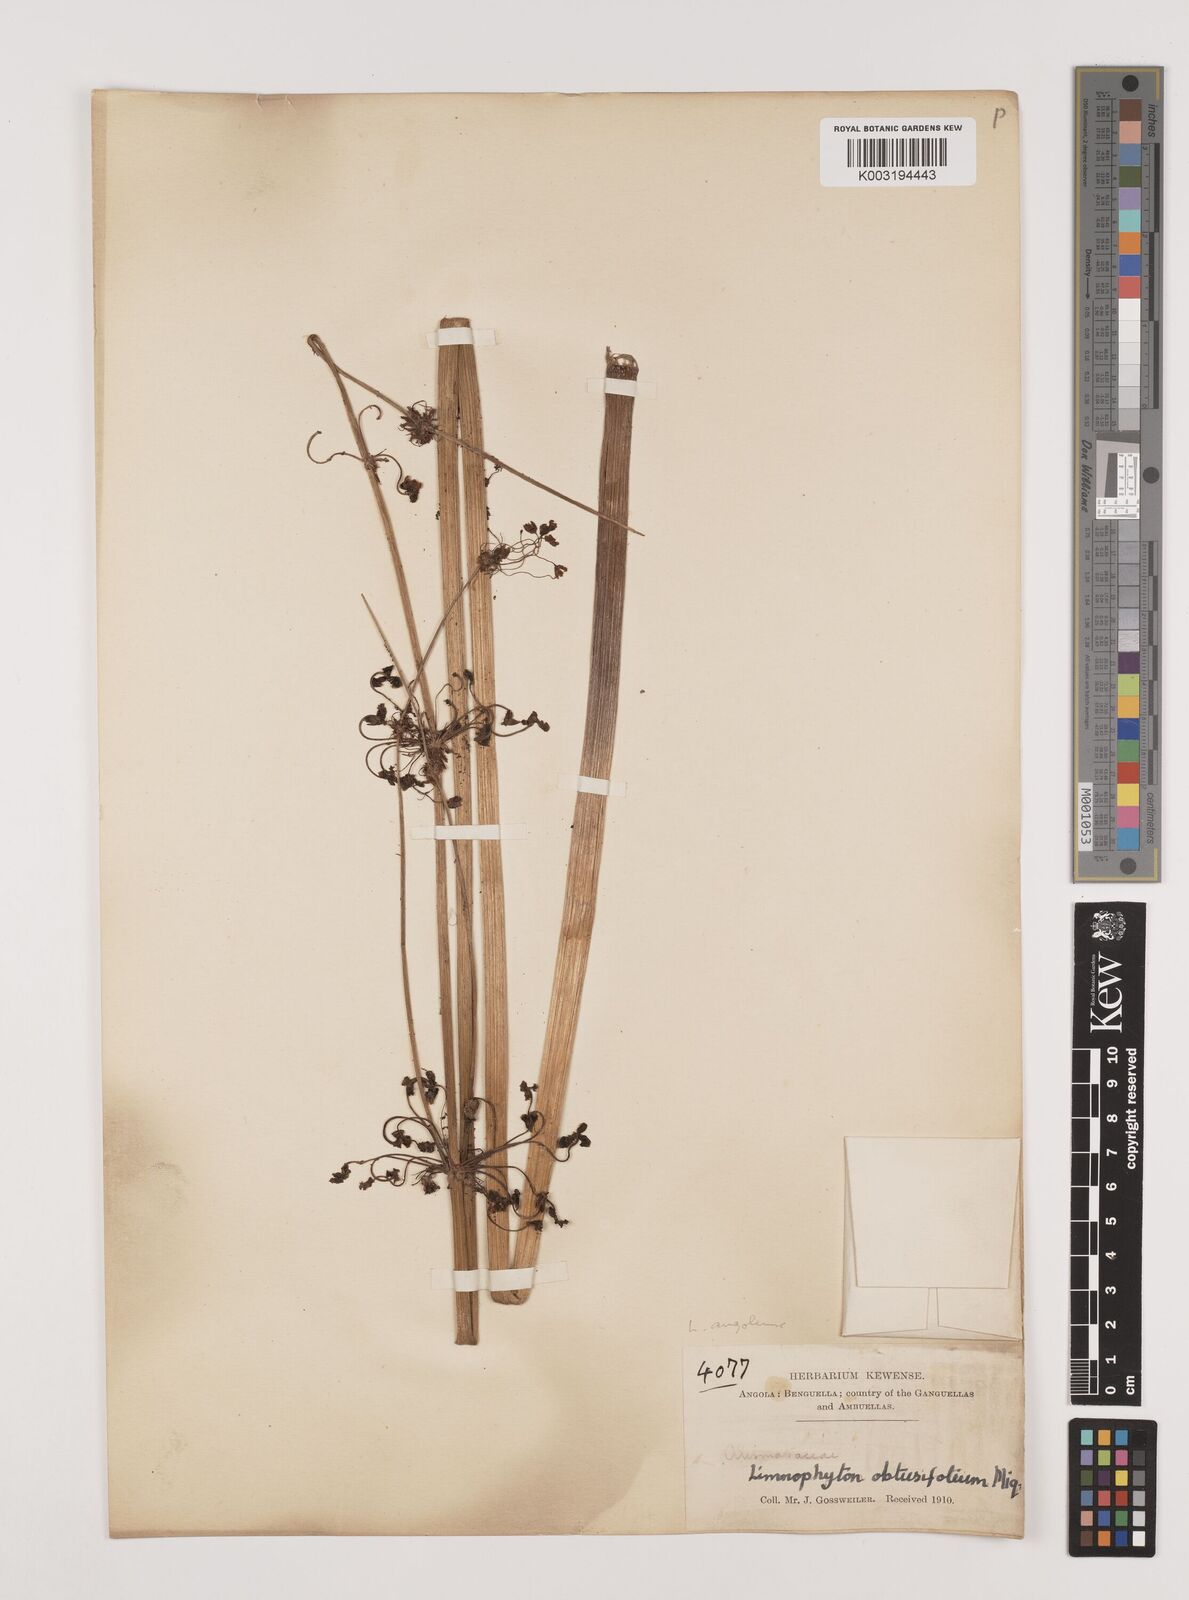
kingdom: Plantae
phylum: Tracheophyta
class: Liliopsida
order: Alismatales
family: Alismataceae
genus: Limnophyton
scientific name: Limnophyton angolense
